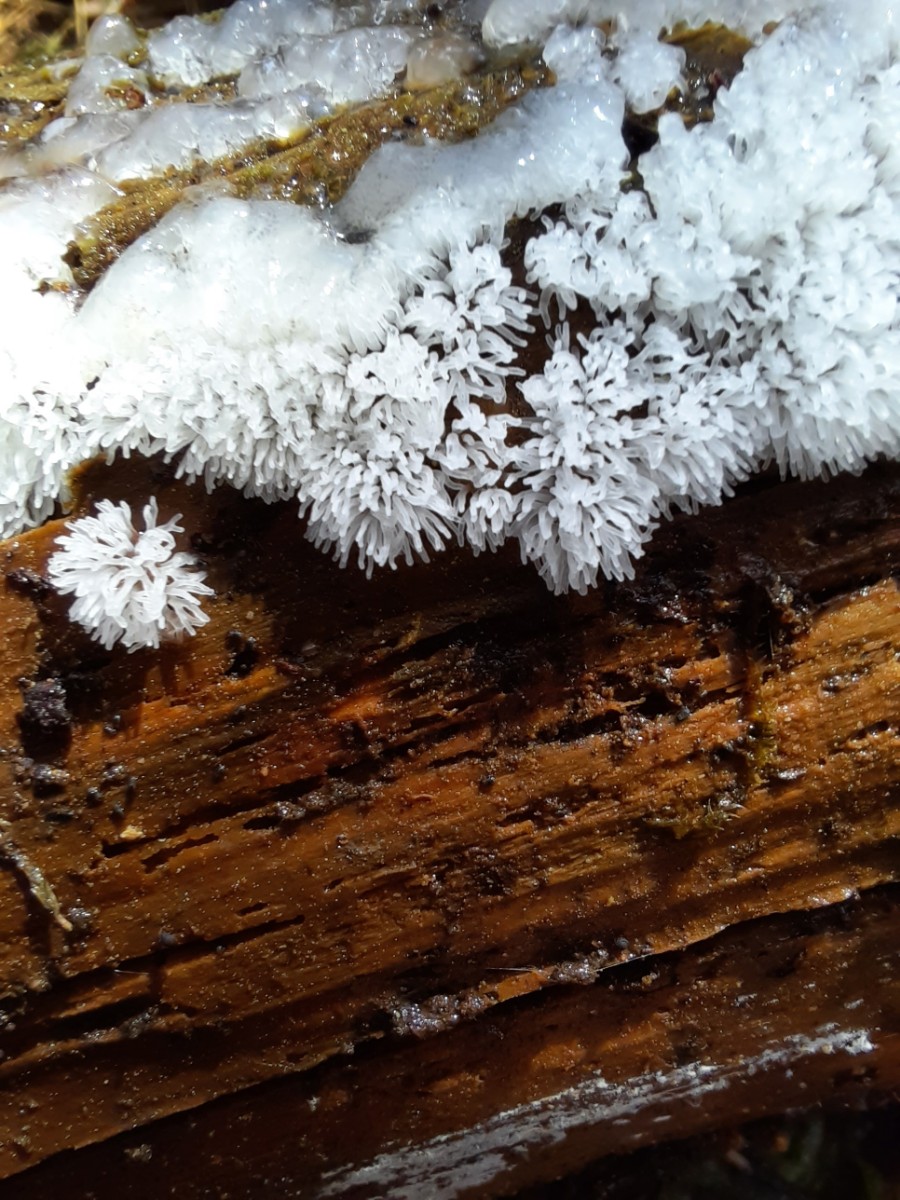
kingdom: Protozoa
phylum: Mycetozoa
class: Protosteliomycetes
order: Ceratiomyxales
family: Ceratiomyxaceae
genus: Ceratiomyxa
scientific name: Ceratiomyxa fruticulosa
